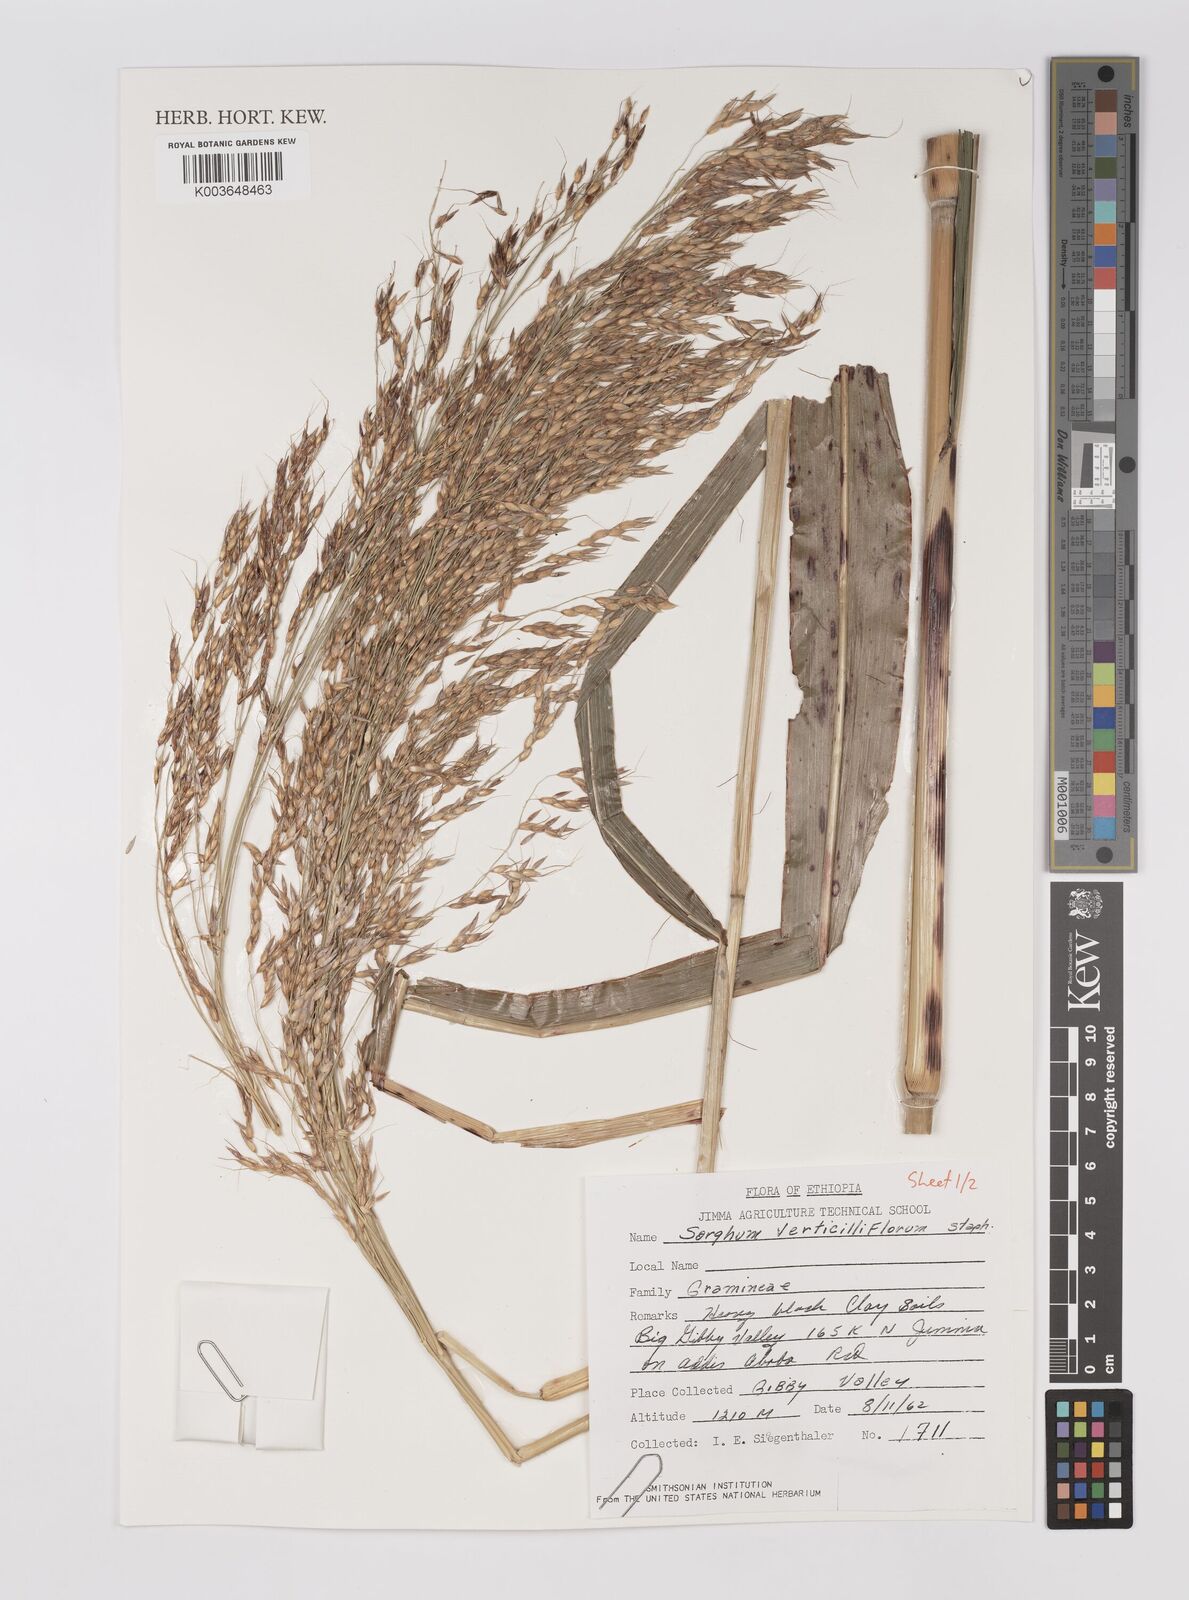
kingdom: Plantae
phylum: Tracheophyta
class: Liliopsida
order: Poales
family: Poaceae
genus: Sorghum
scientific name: Sorghum arundinaceum
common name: Sorghum
